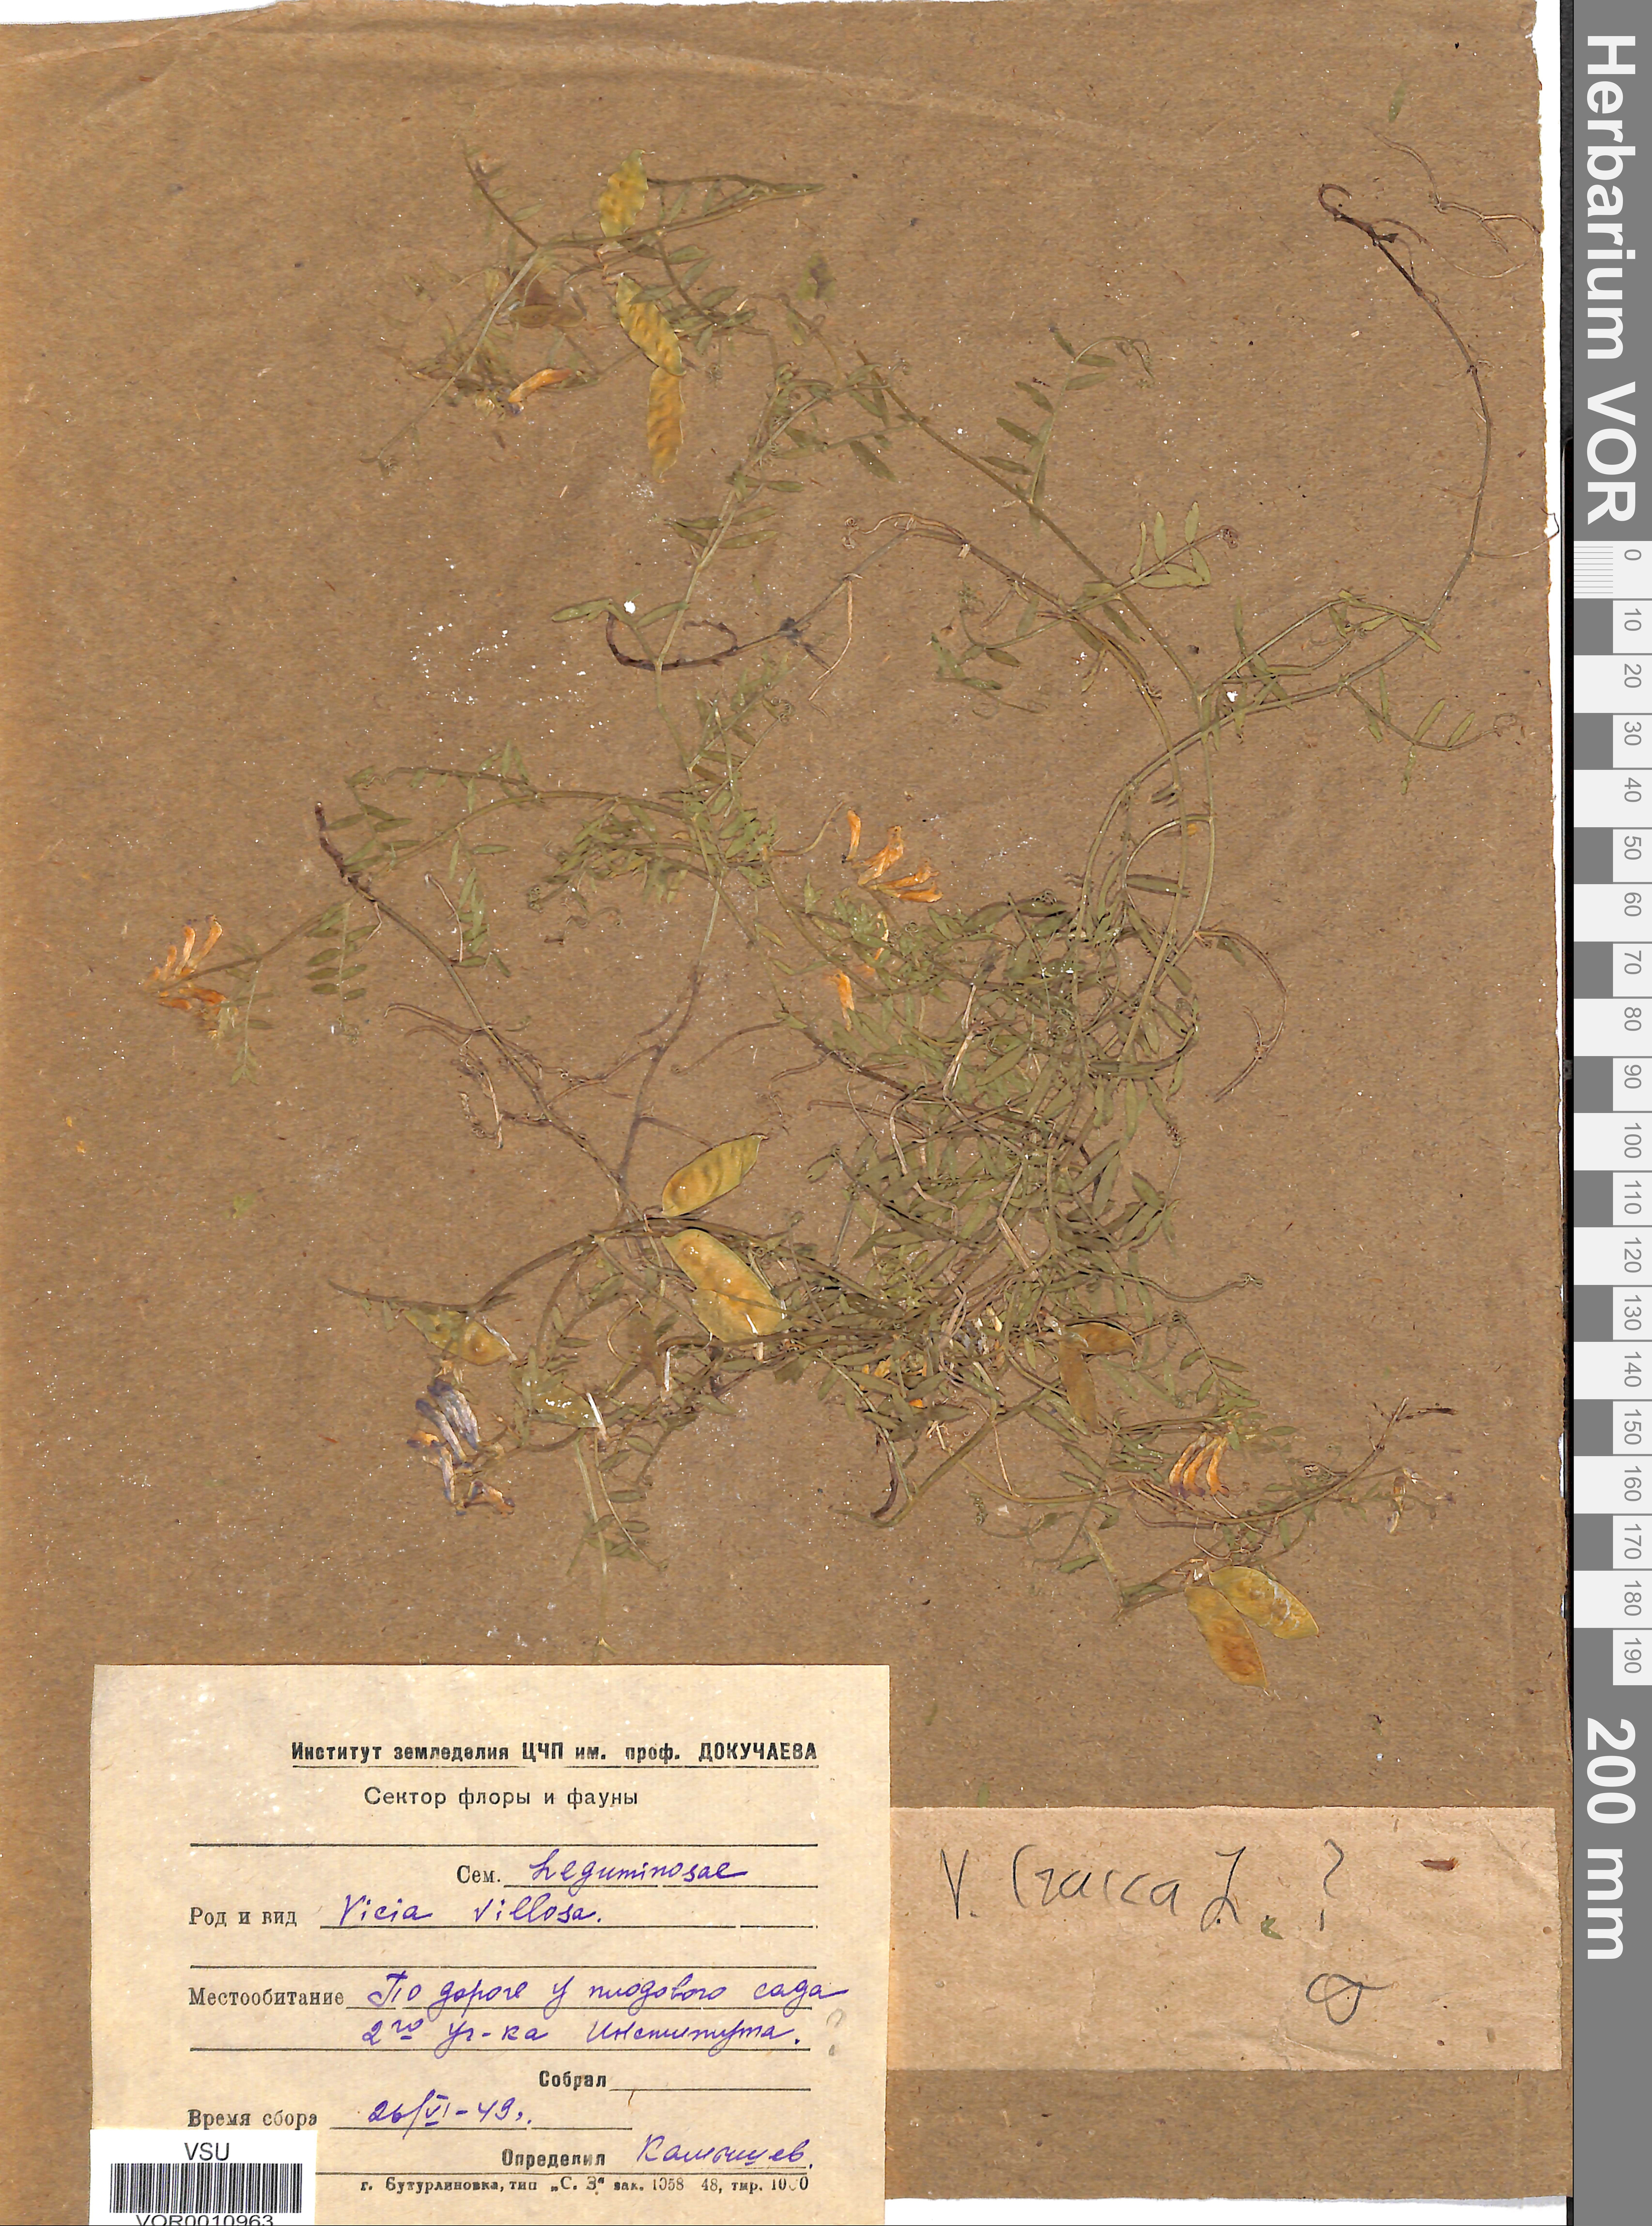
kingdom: Plantae
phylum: Tracheophyta
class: Magnoliopsida
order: Fabales
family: Fabaceae
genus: Vicia
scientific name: Vicia villosa
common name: Fodder vetch
